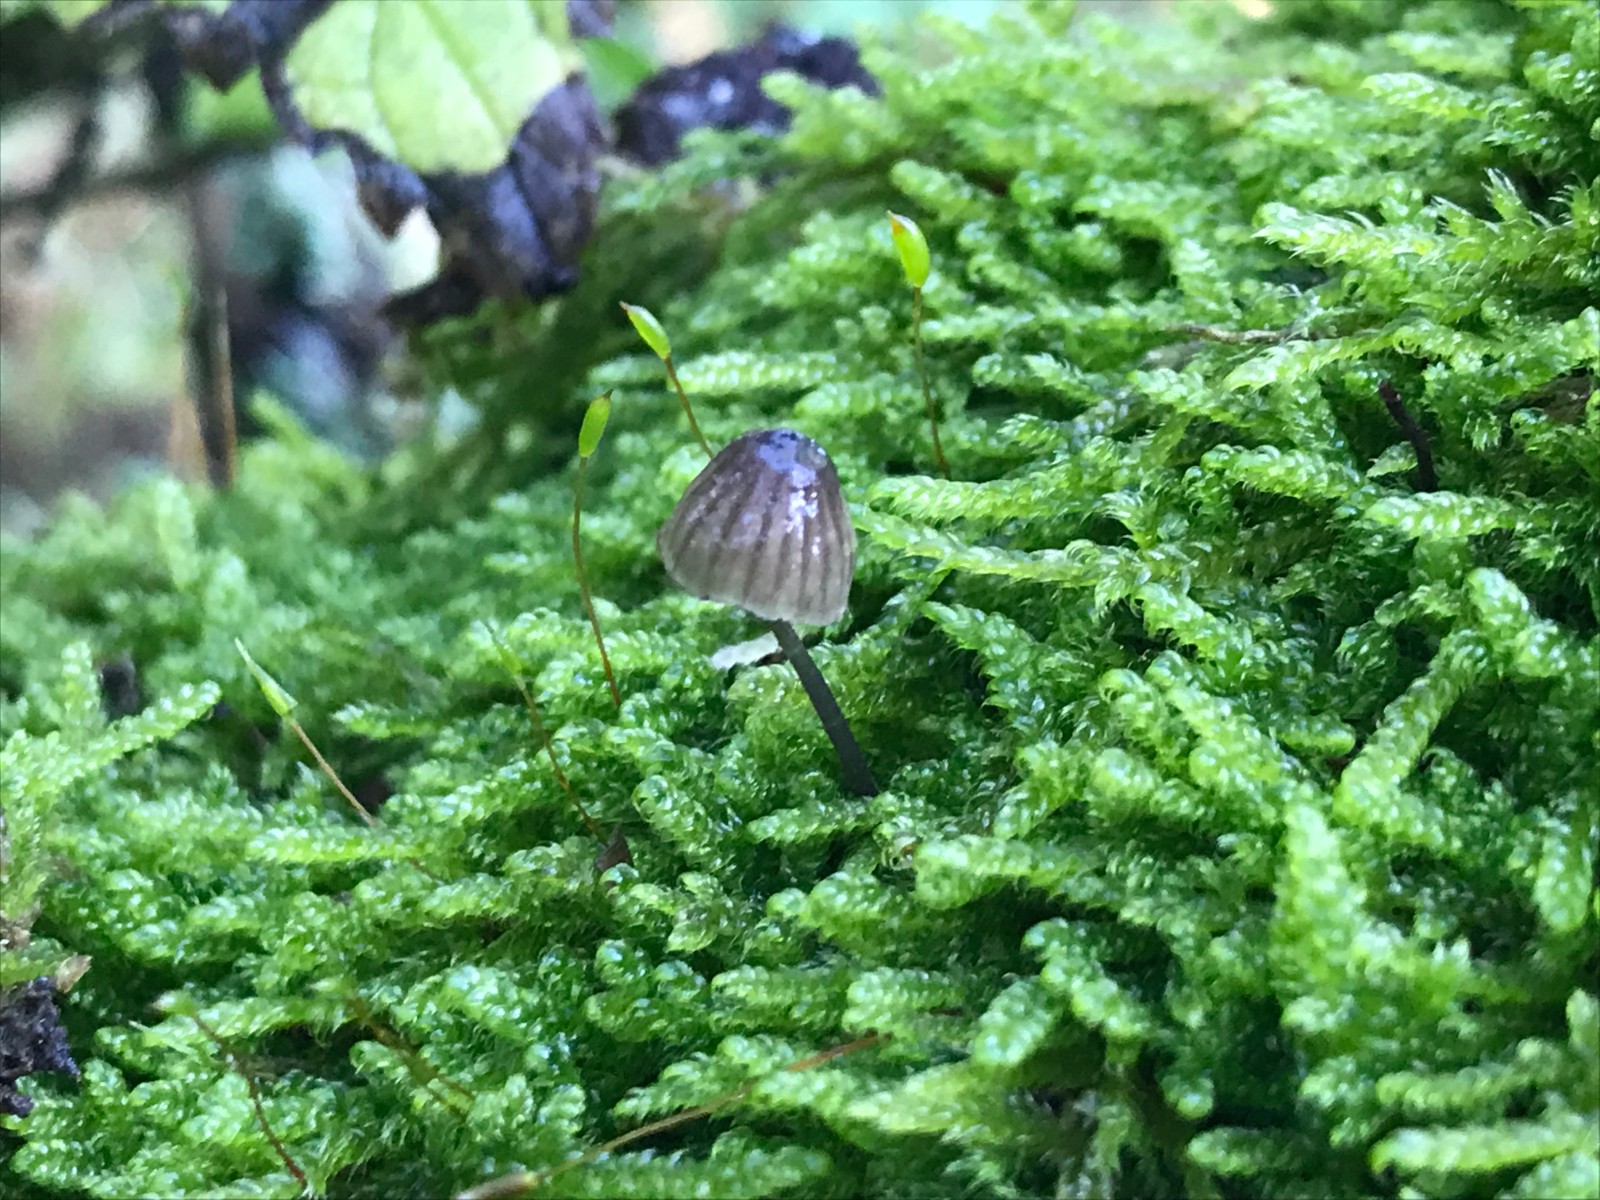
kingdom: Fungi
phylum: Basidiomycota
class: Agaricomycetes
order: Agaricales
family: Mycenaceae
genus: Mycena
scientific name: Mycena pseudocorticola
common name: gråblå bark-huesvamp
